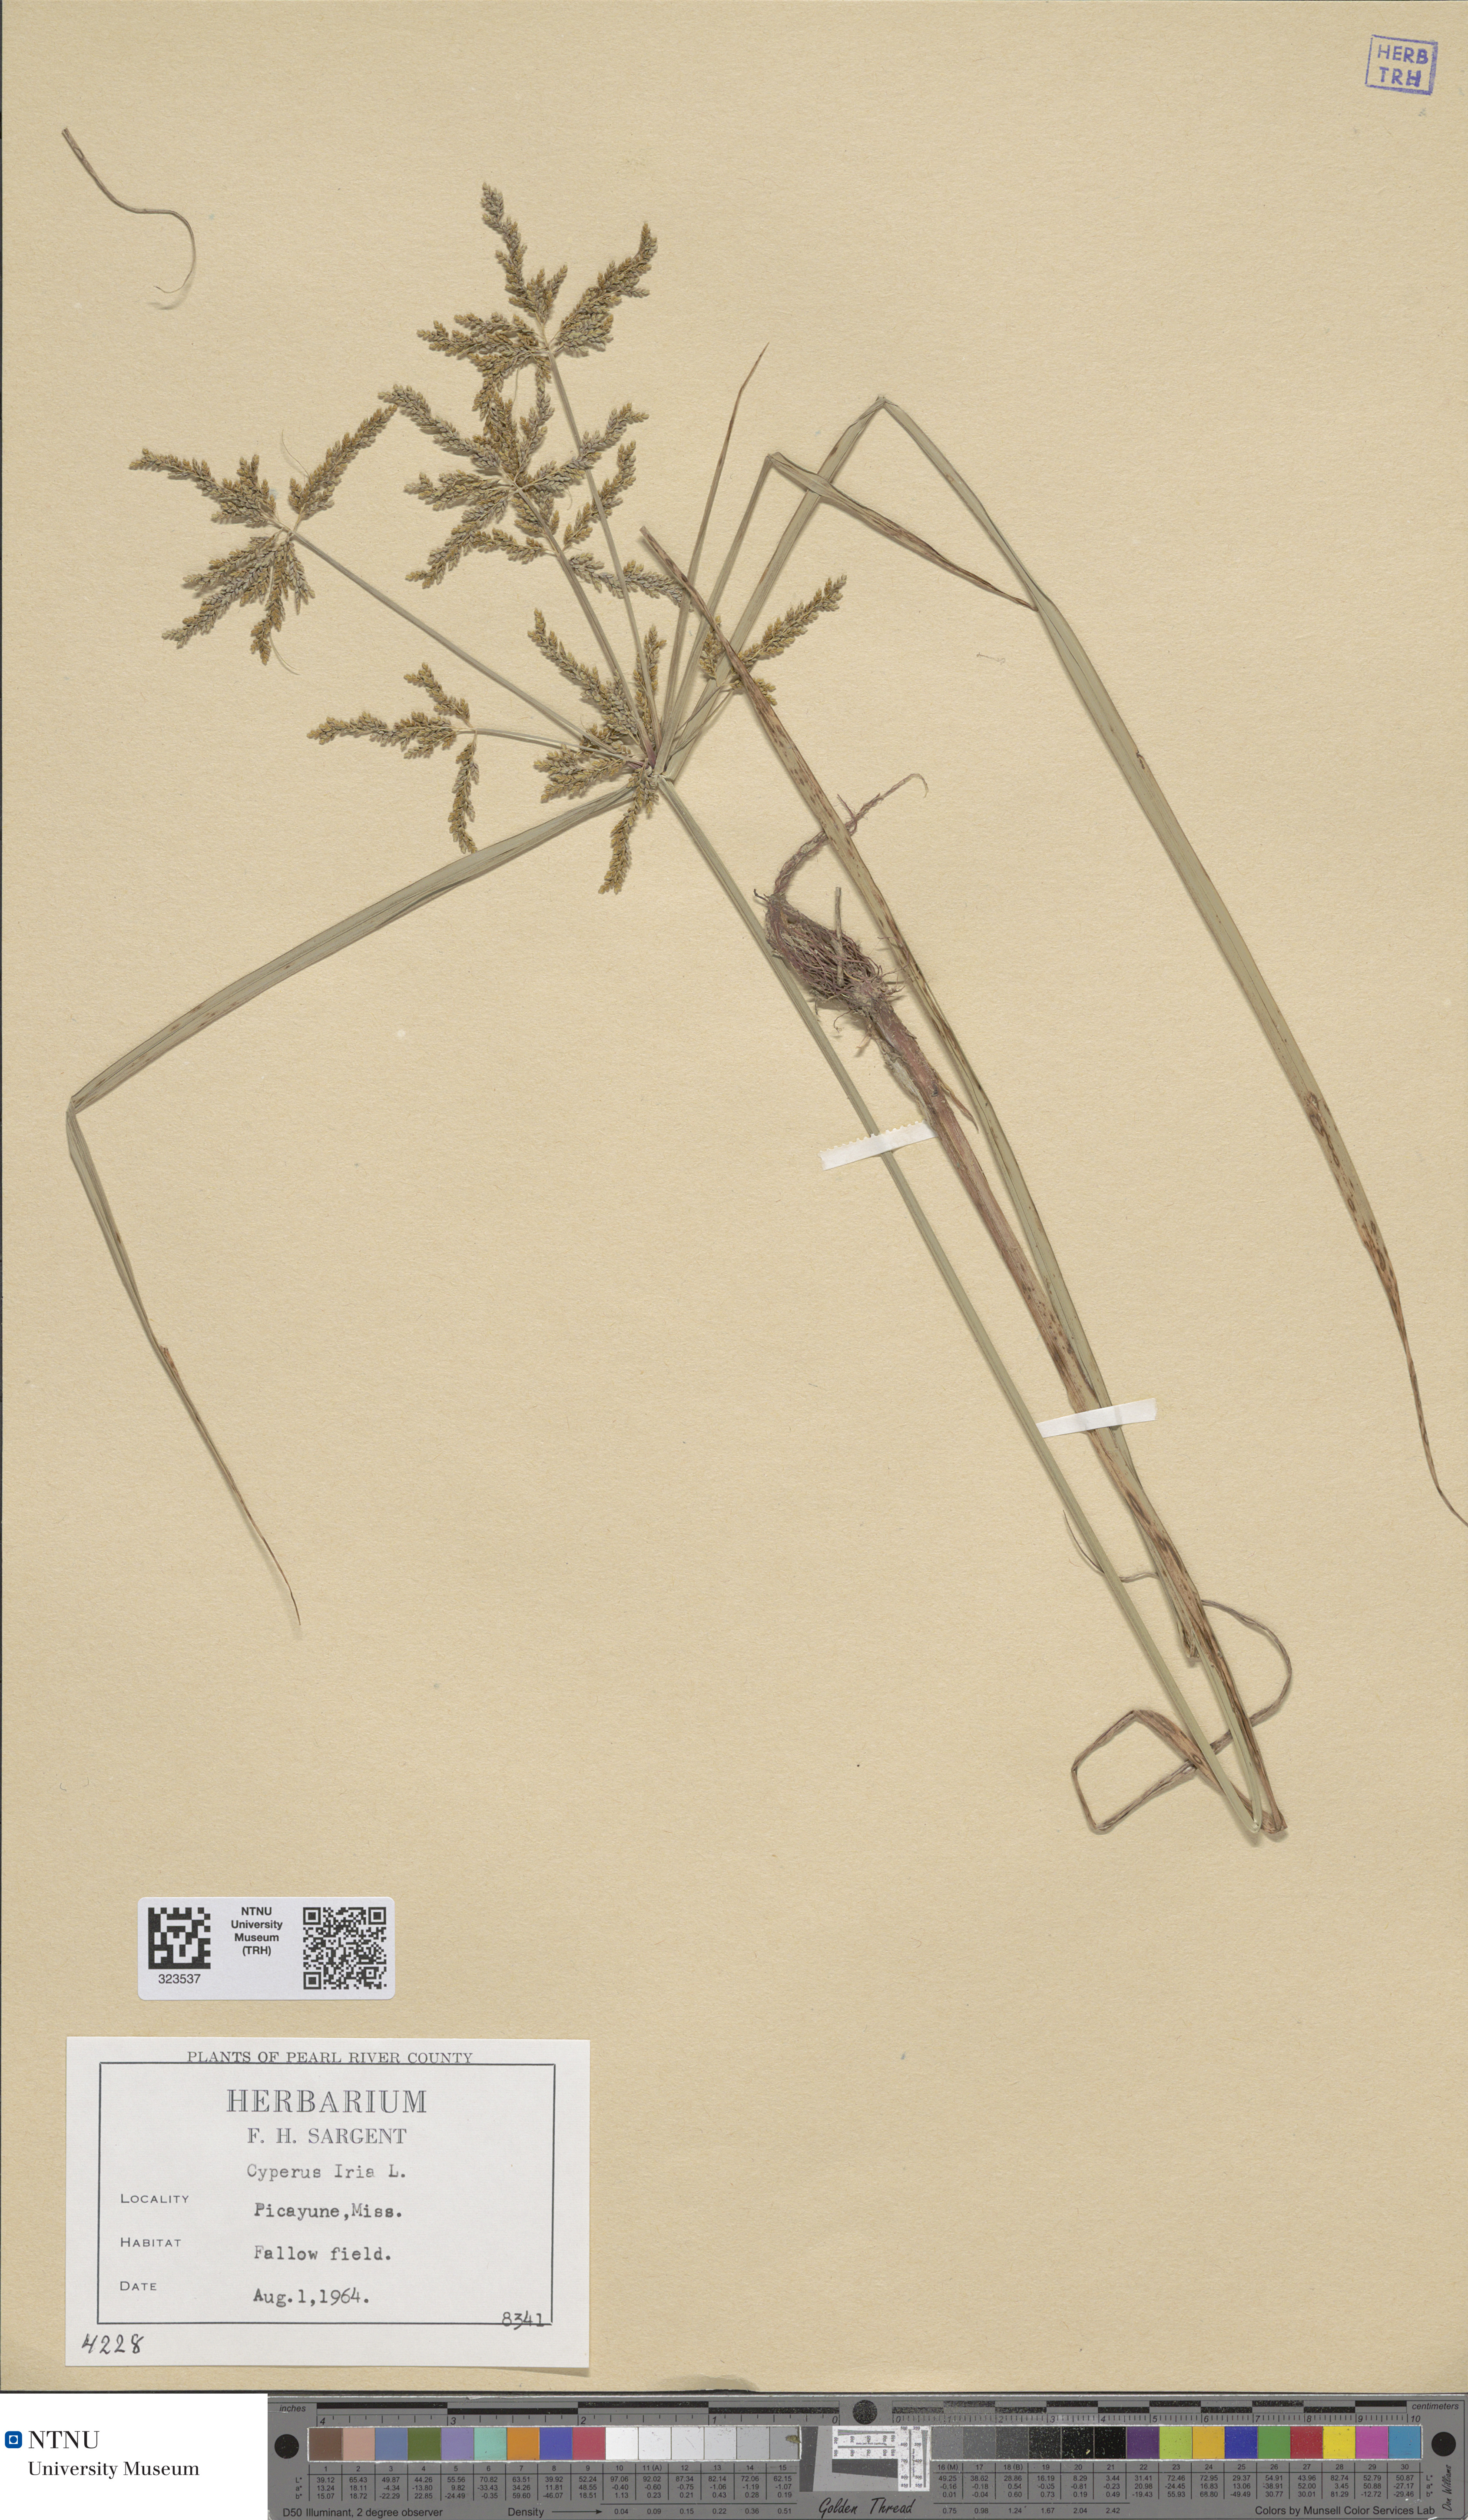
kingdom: Plantae
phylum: Tracheophyta
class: Liliopsida
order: Poales
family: Cyperaceae
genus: Cyperus
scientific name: Cyperus iria
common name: Ricefield flatsedge
